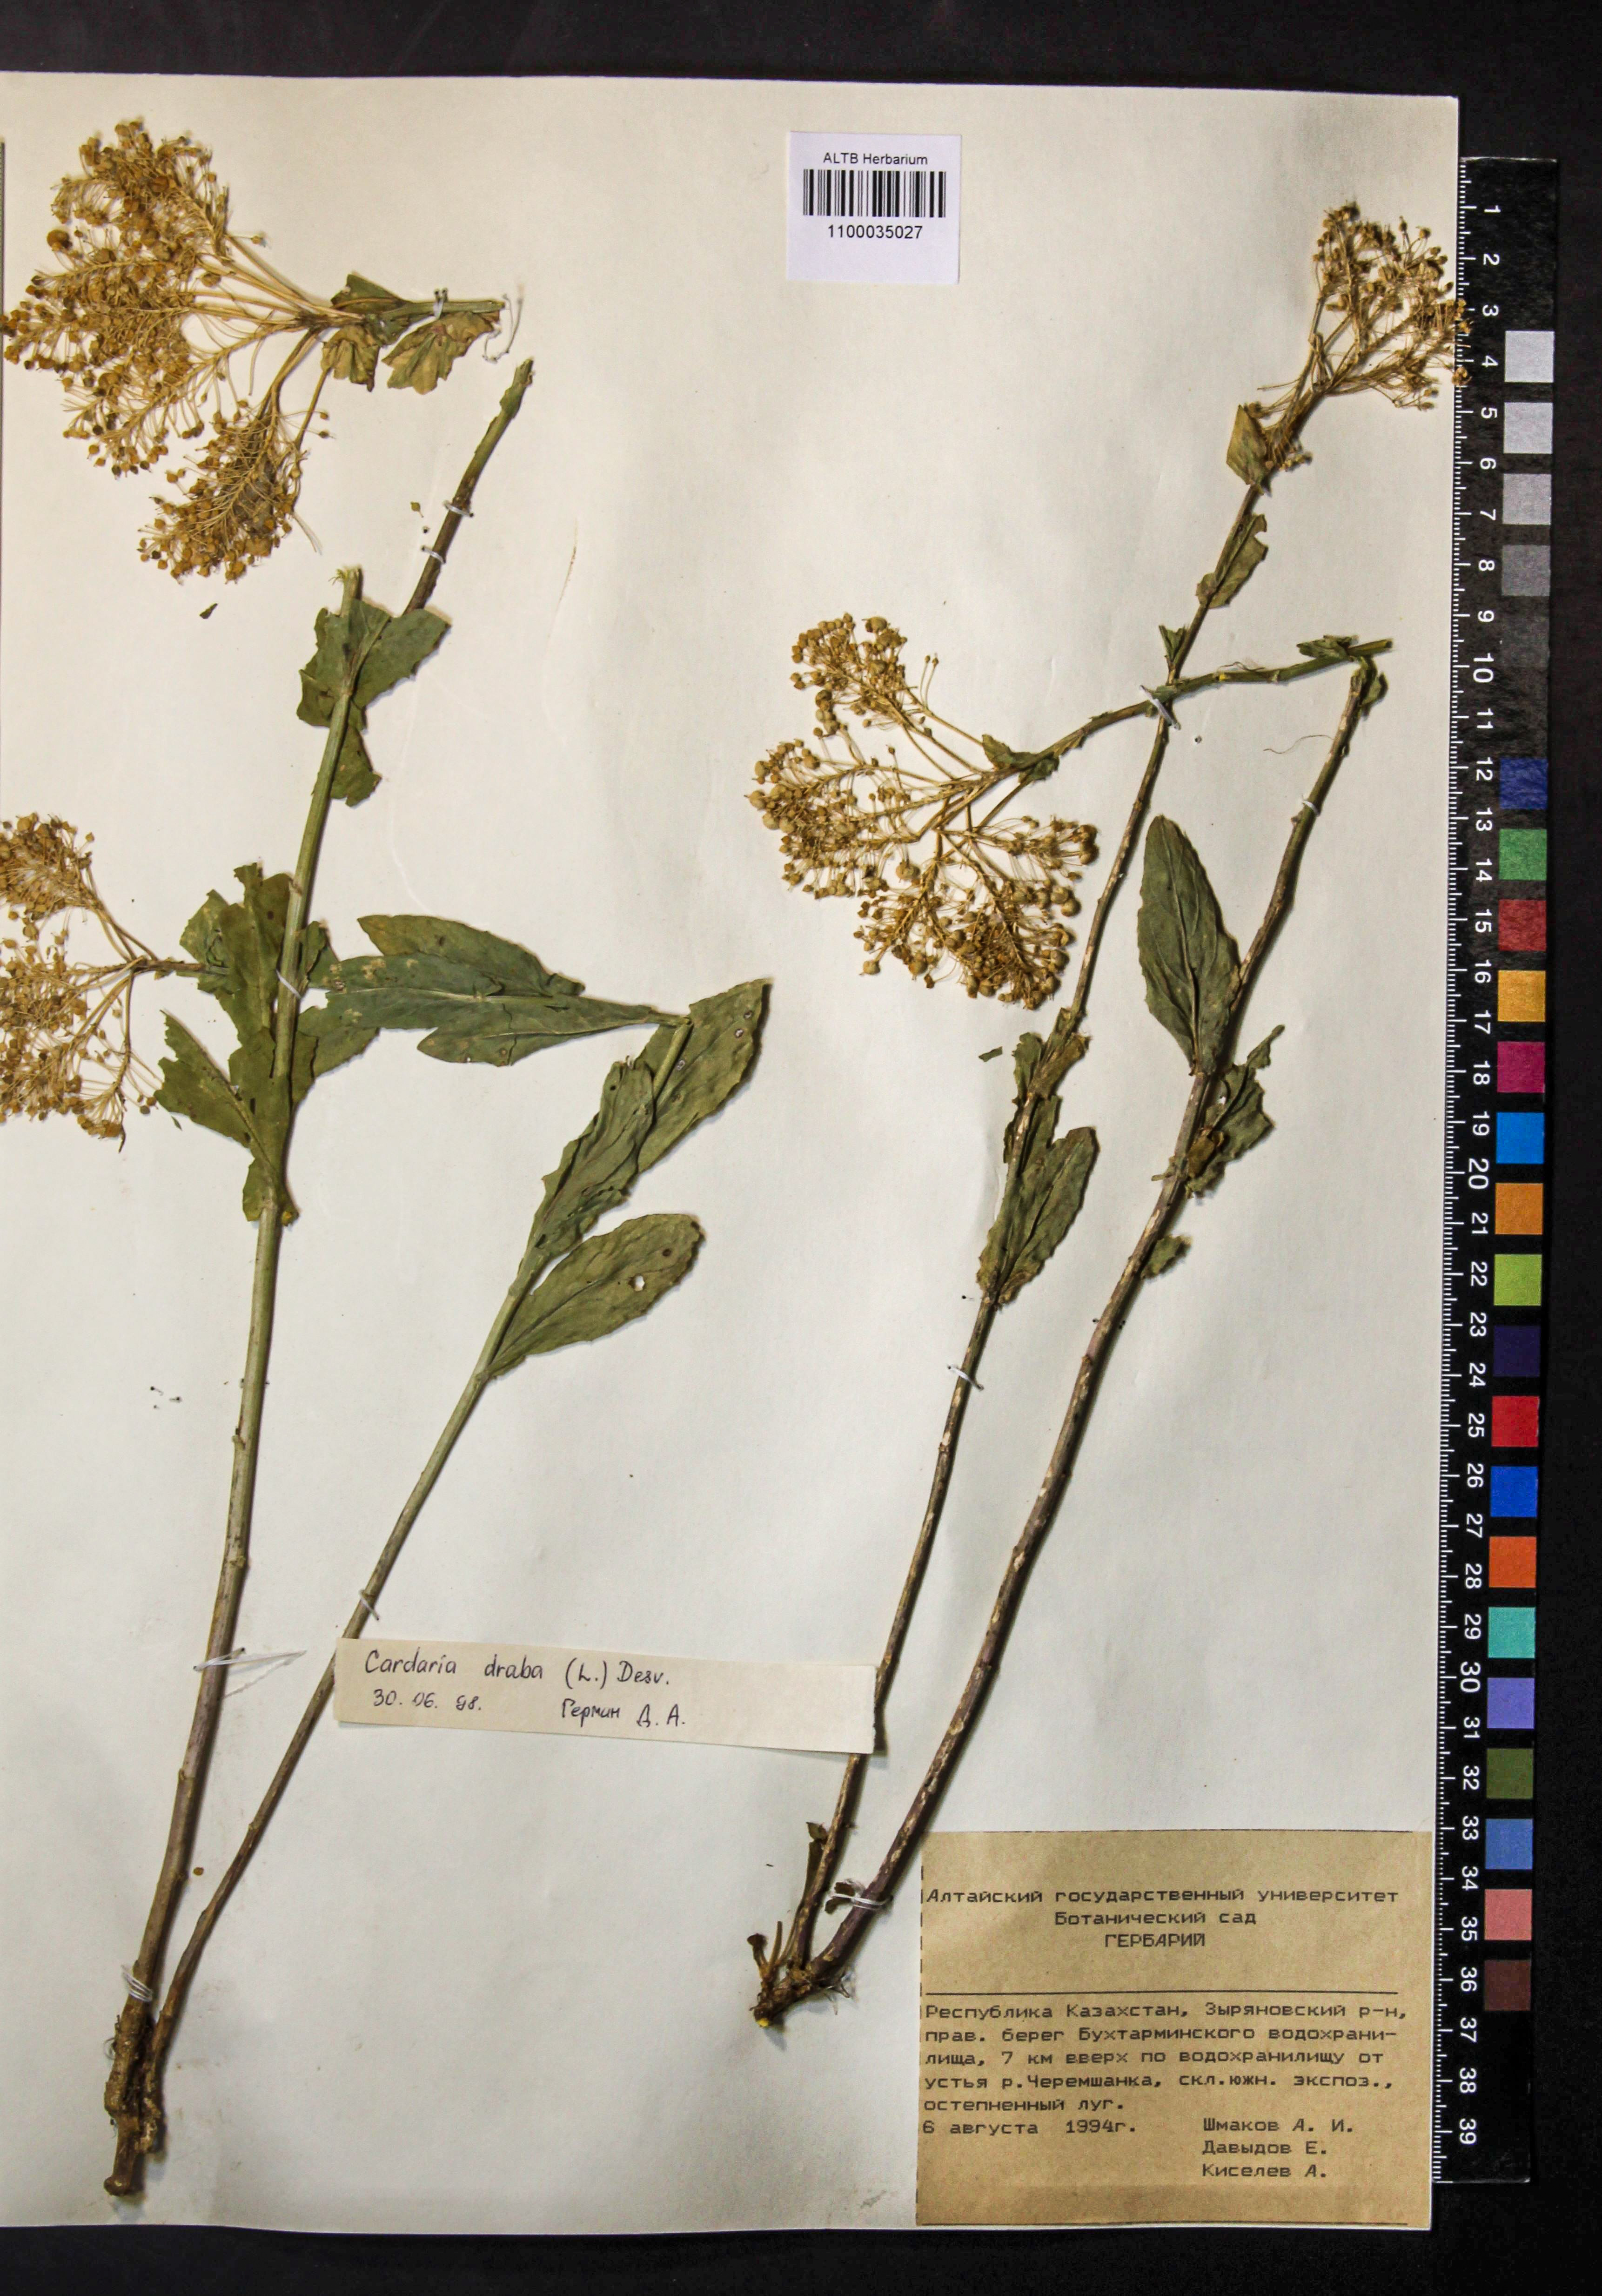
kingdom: Plantae
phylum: Tracheophyta
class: Magnoliopsida
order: Brassicales
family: Brassicaceae
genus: Lepidium
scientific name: Lepidium draba
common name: Hoary cress
